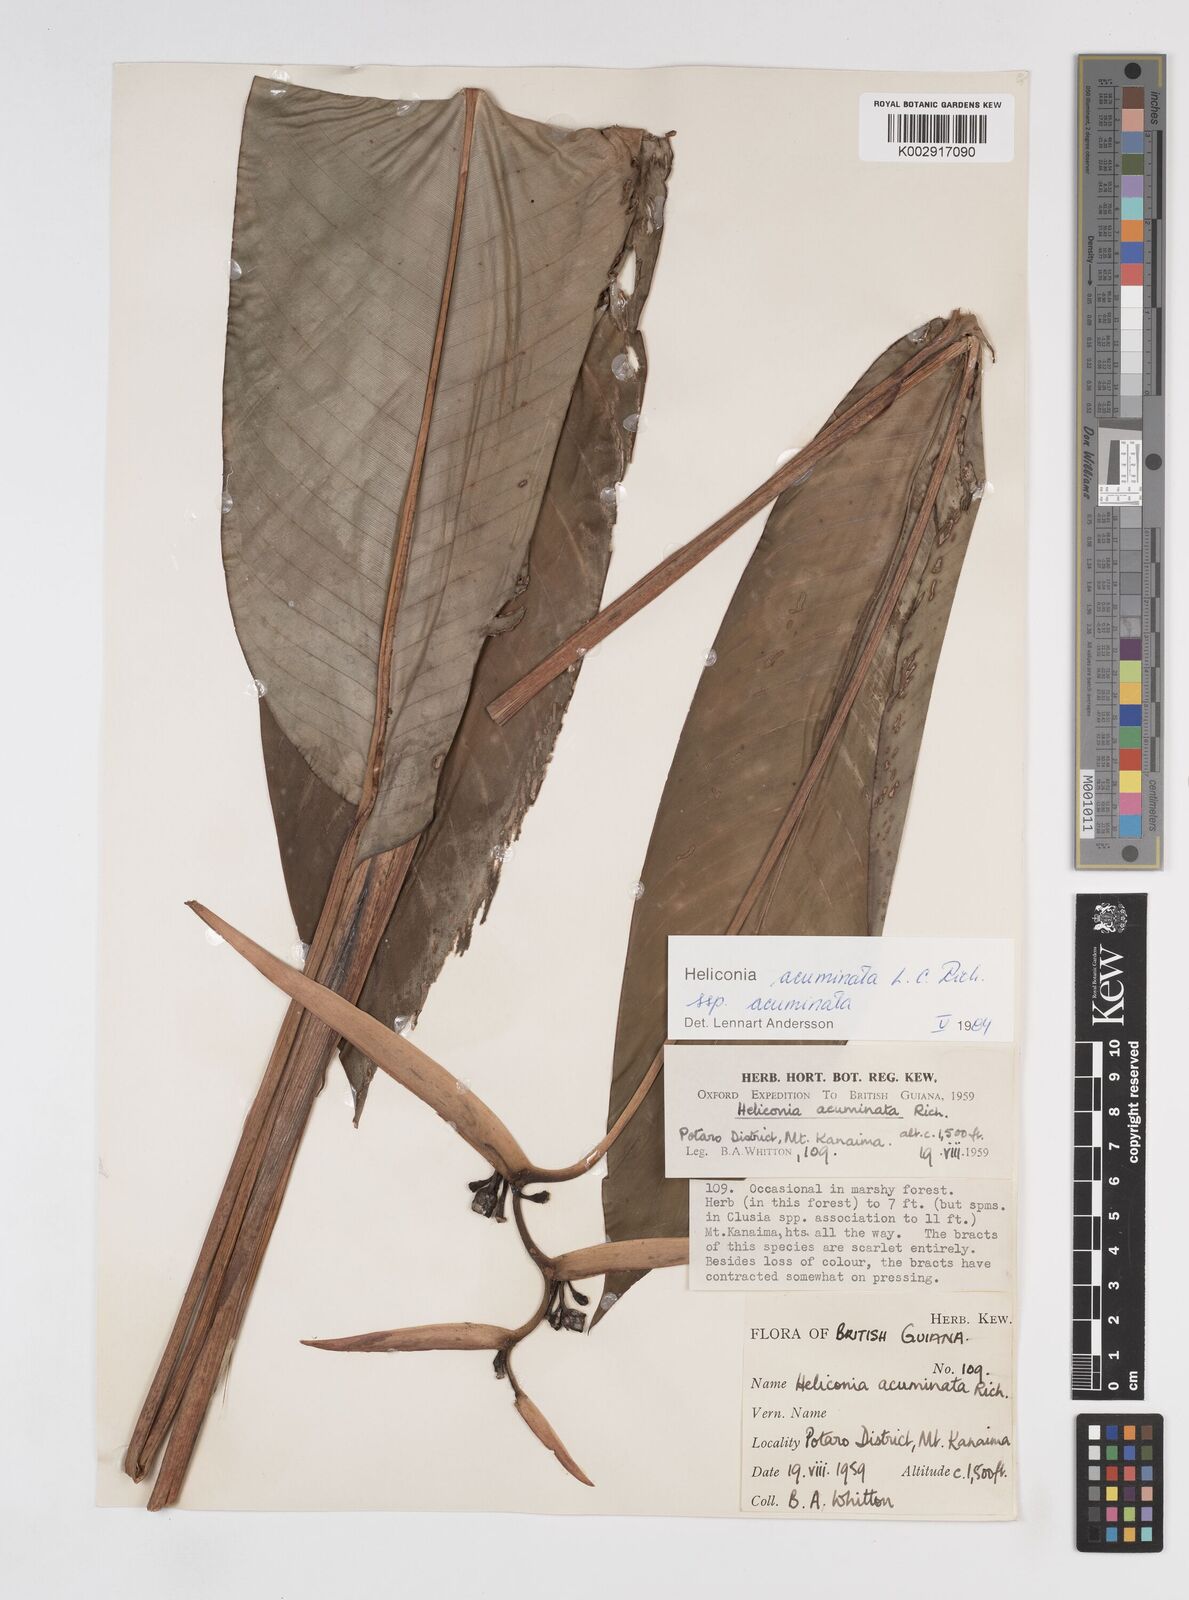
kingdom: Plantae
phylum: Tracheophyta
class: Liliopsida
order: Zingiberales
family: Heliconiaceae
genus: Heliconia
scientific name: Heliconia acuminata
